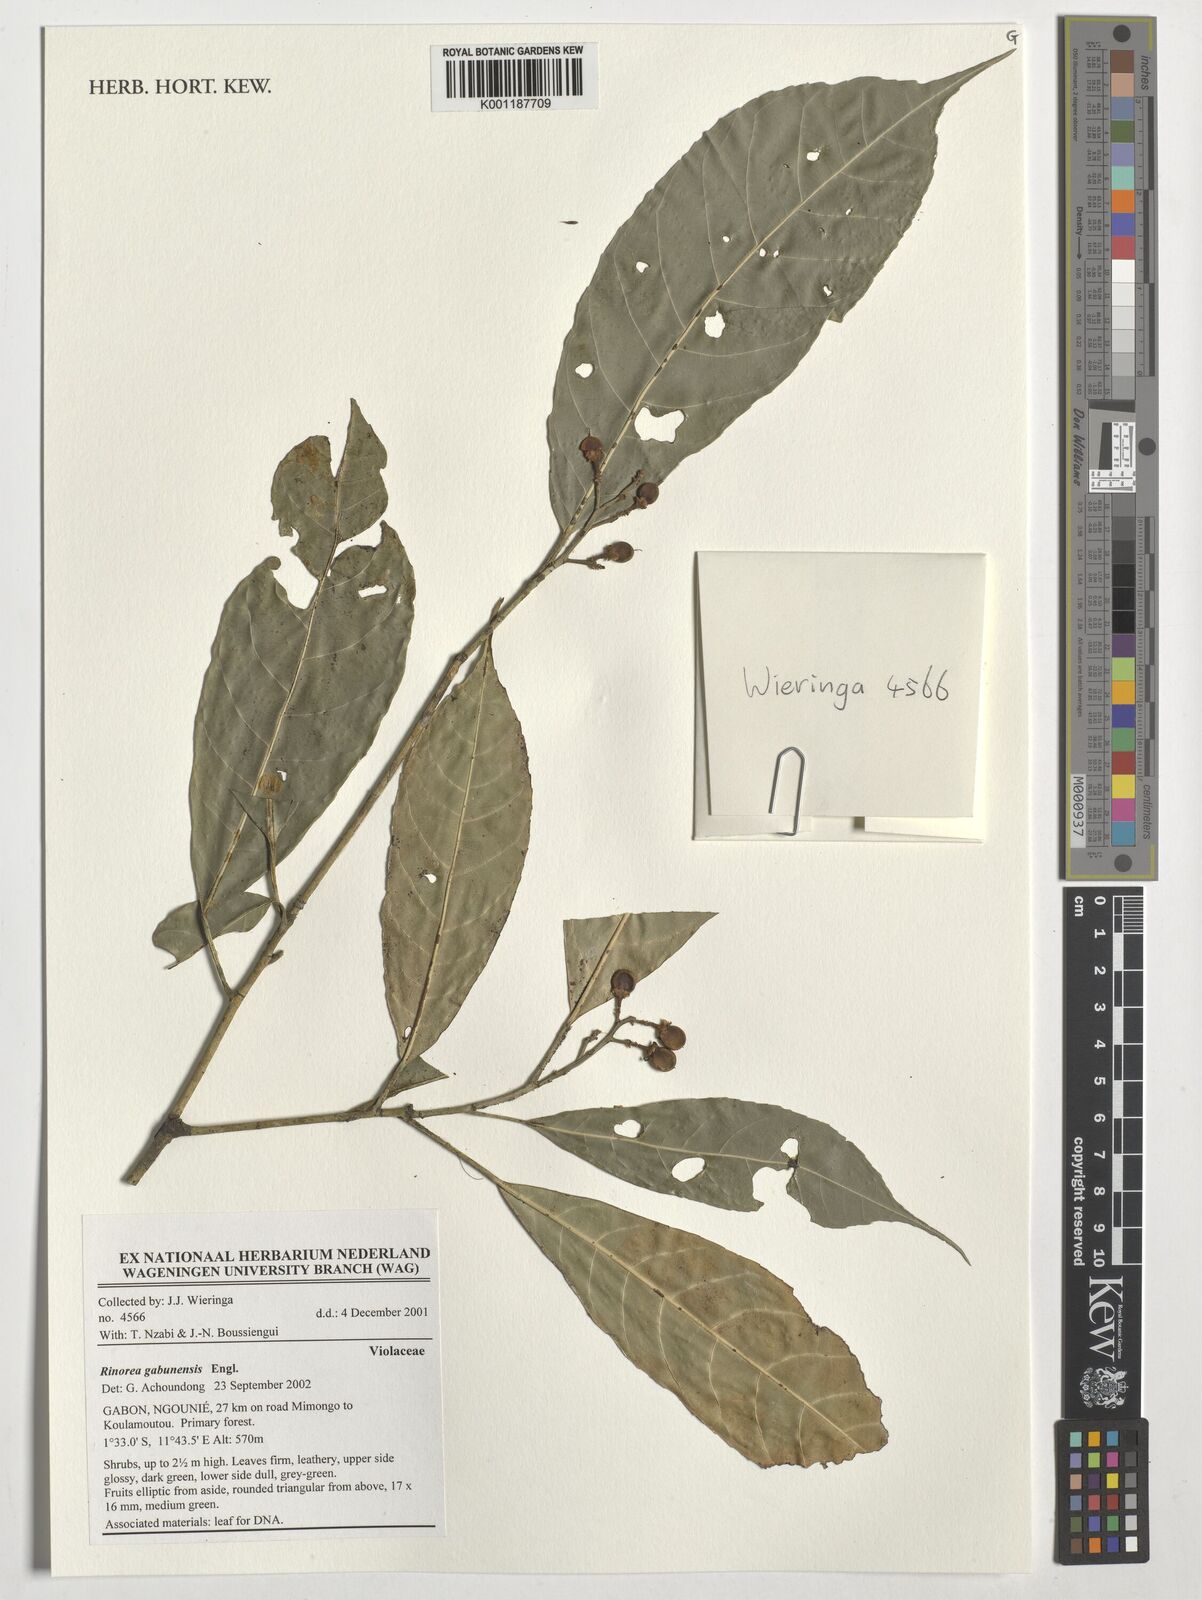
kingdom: Plantae
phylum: Tracheophyta
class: Magnoliopsida
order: Malpighiales
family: Violaceae
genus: Rinorea
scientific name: Rinorea gabunensis
